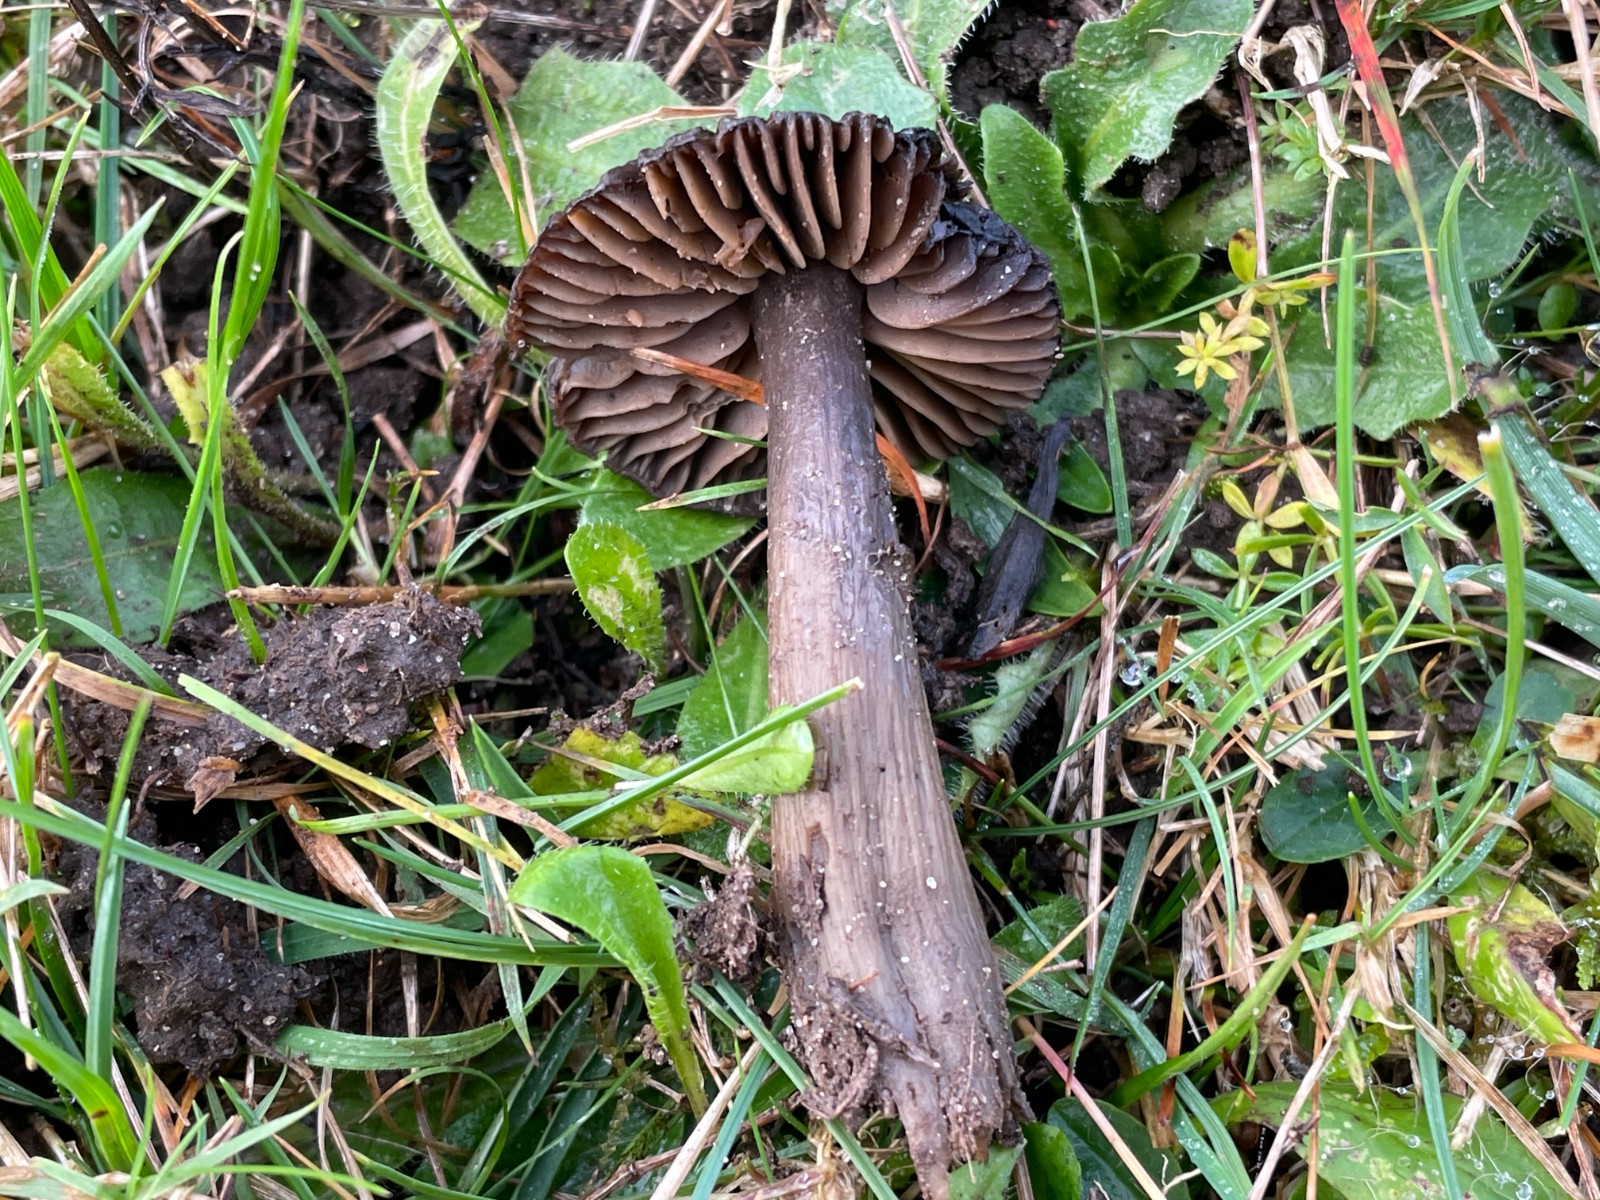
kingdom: Fungi
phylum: Basidiomycota
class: Agaricomycetes
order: Agaricales
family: Hygrophoraceae
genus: Neohygrocybe
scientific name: Neohygrocybe ovina
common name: rødmende vokshat
